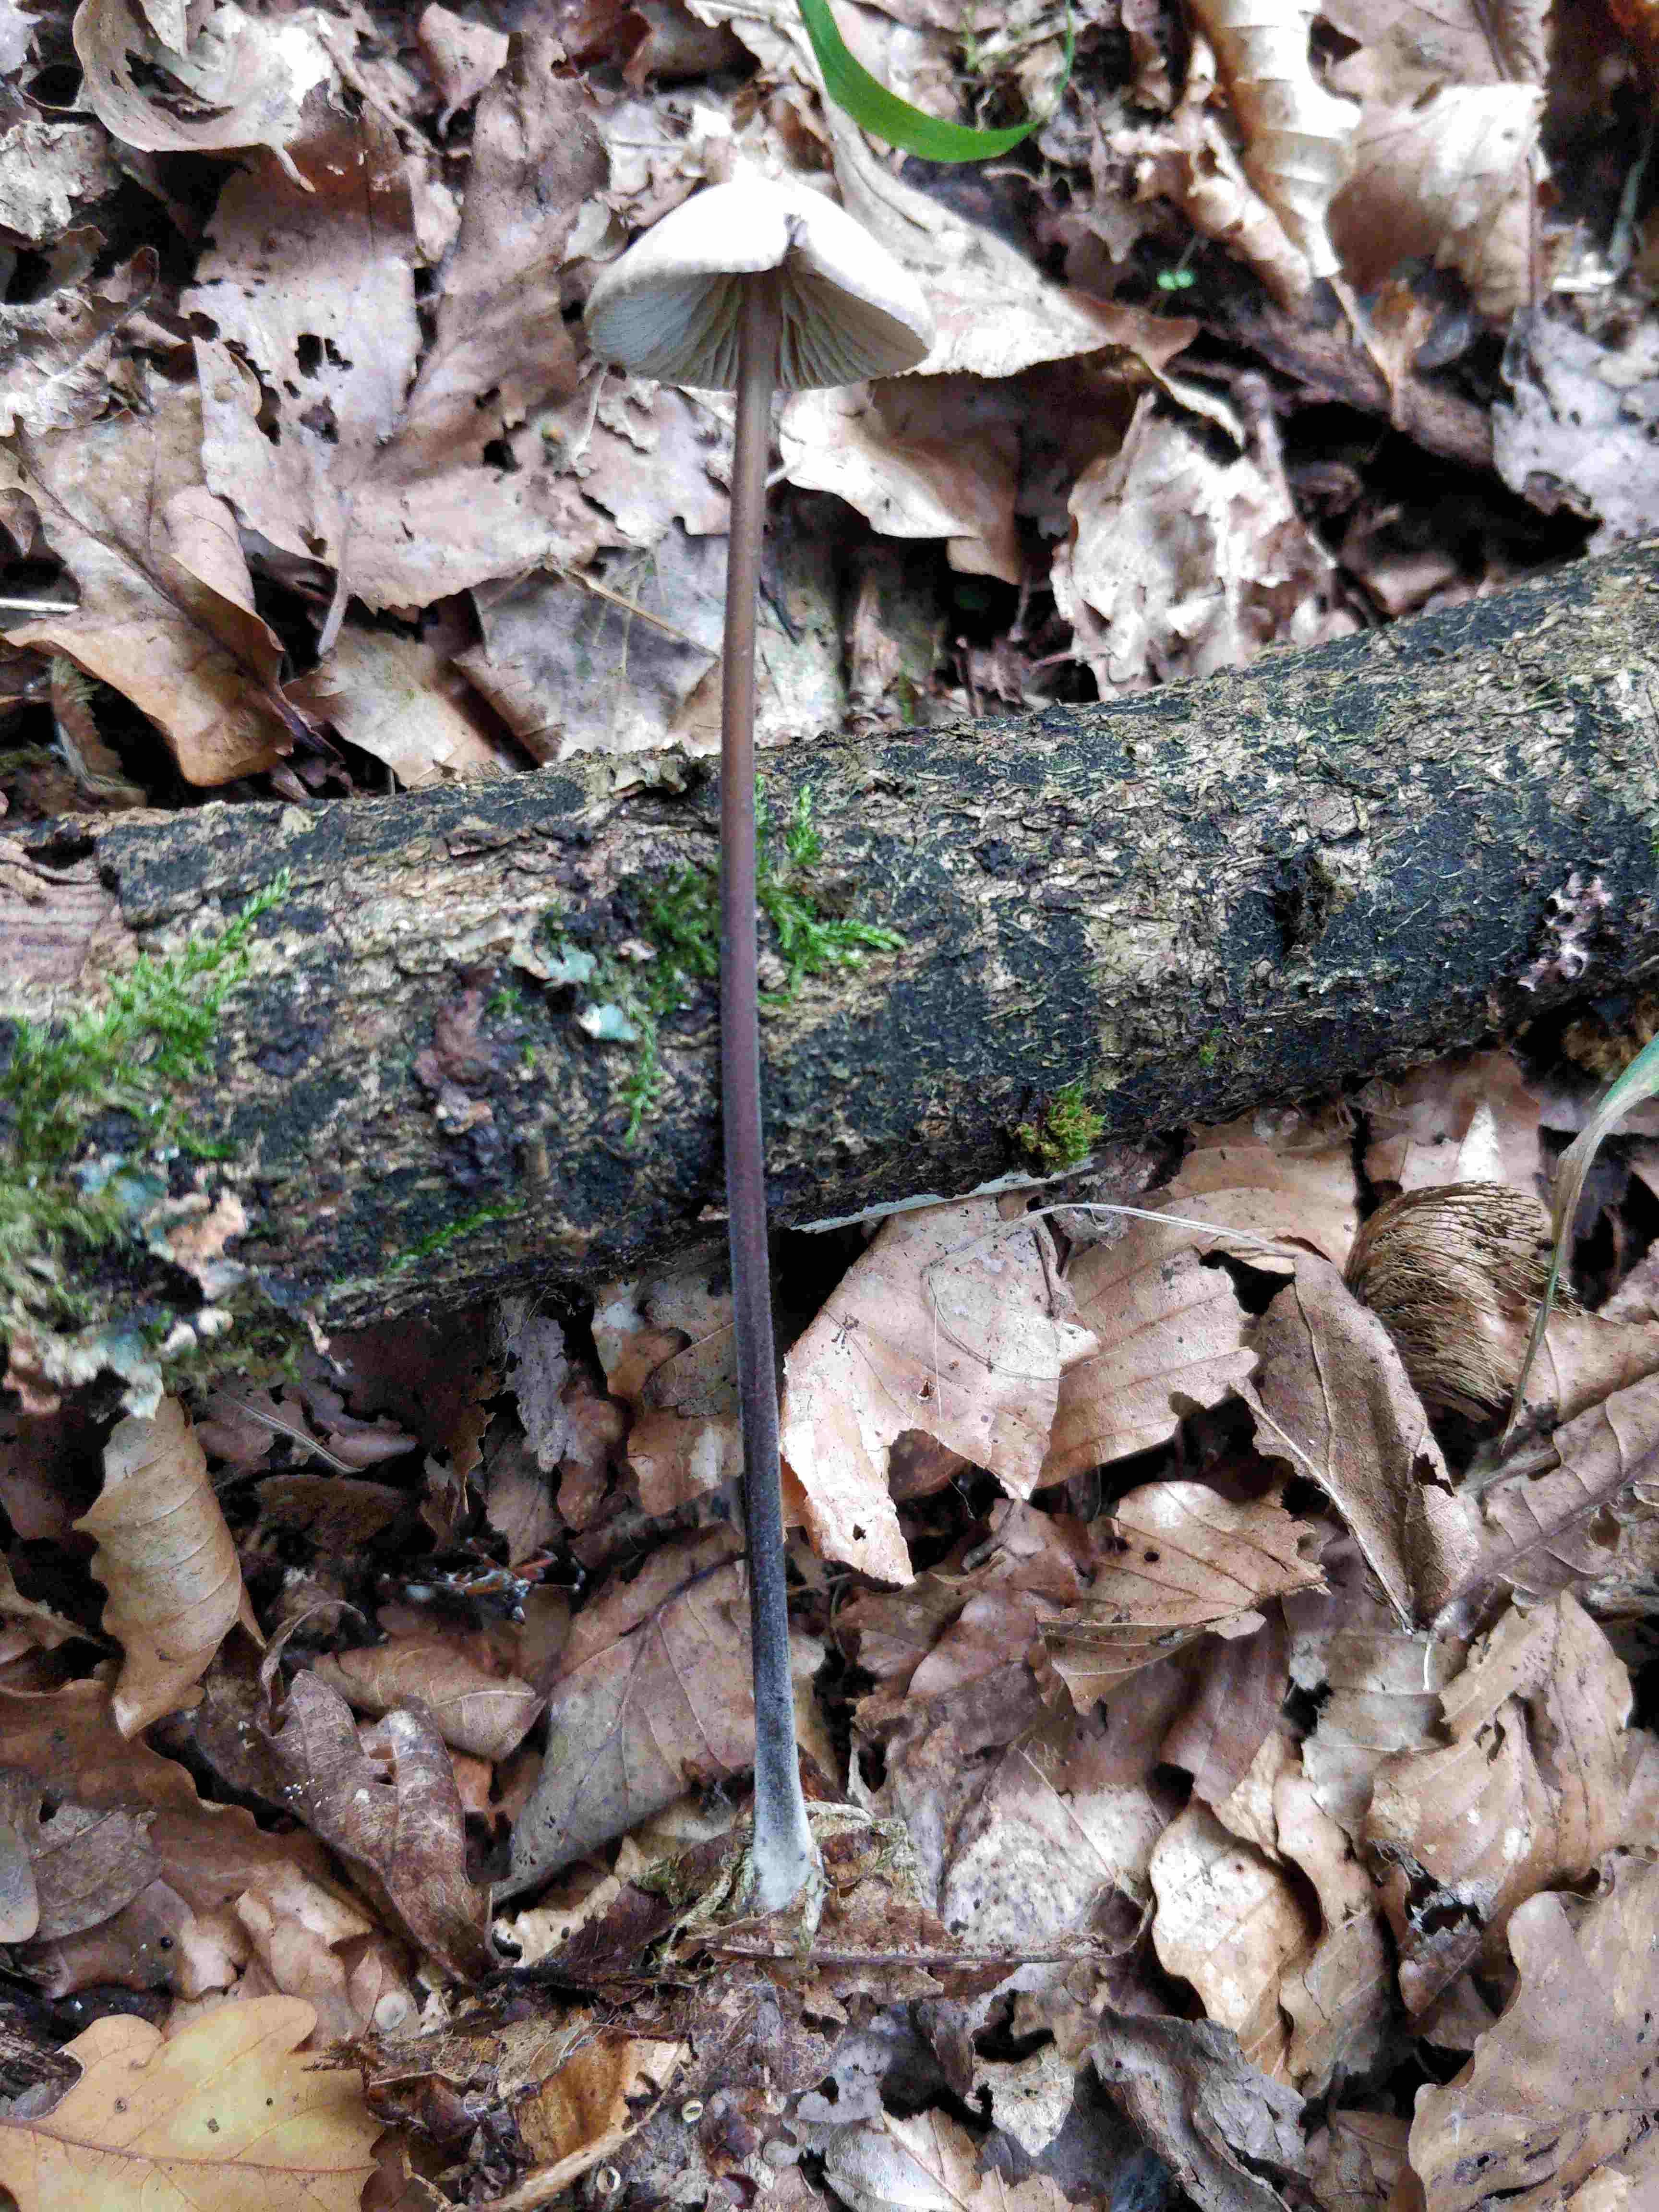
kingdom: Fungi
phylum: Basidiomycota
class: Agaricomycetes
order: Agaricales
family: Omphalotaceae
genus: Mycetinis
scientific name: Mycetinis alliaceus
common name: stor løghat
